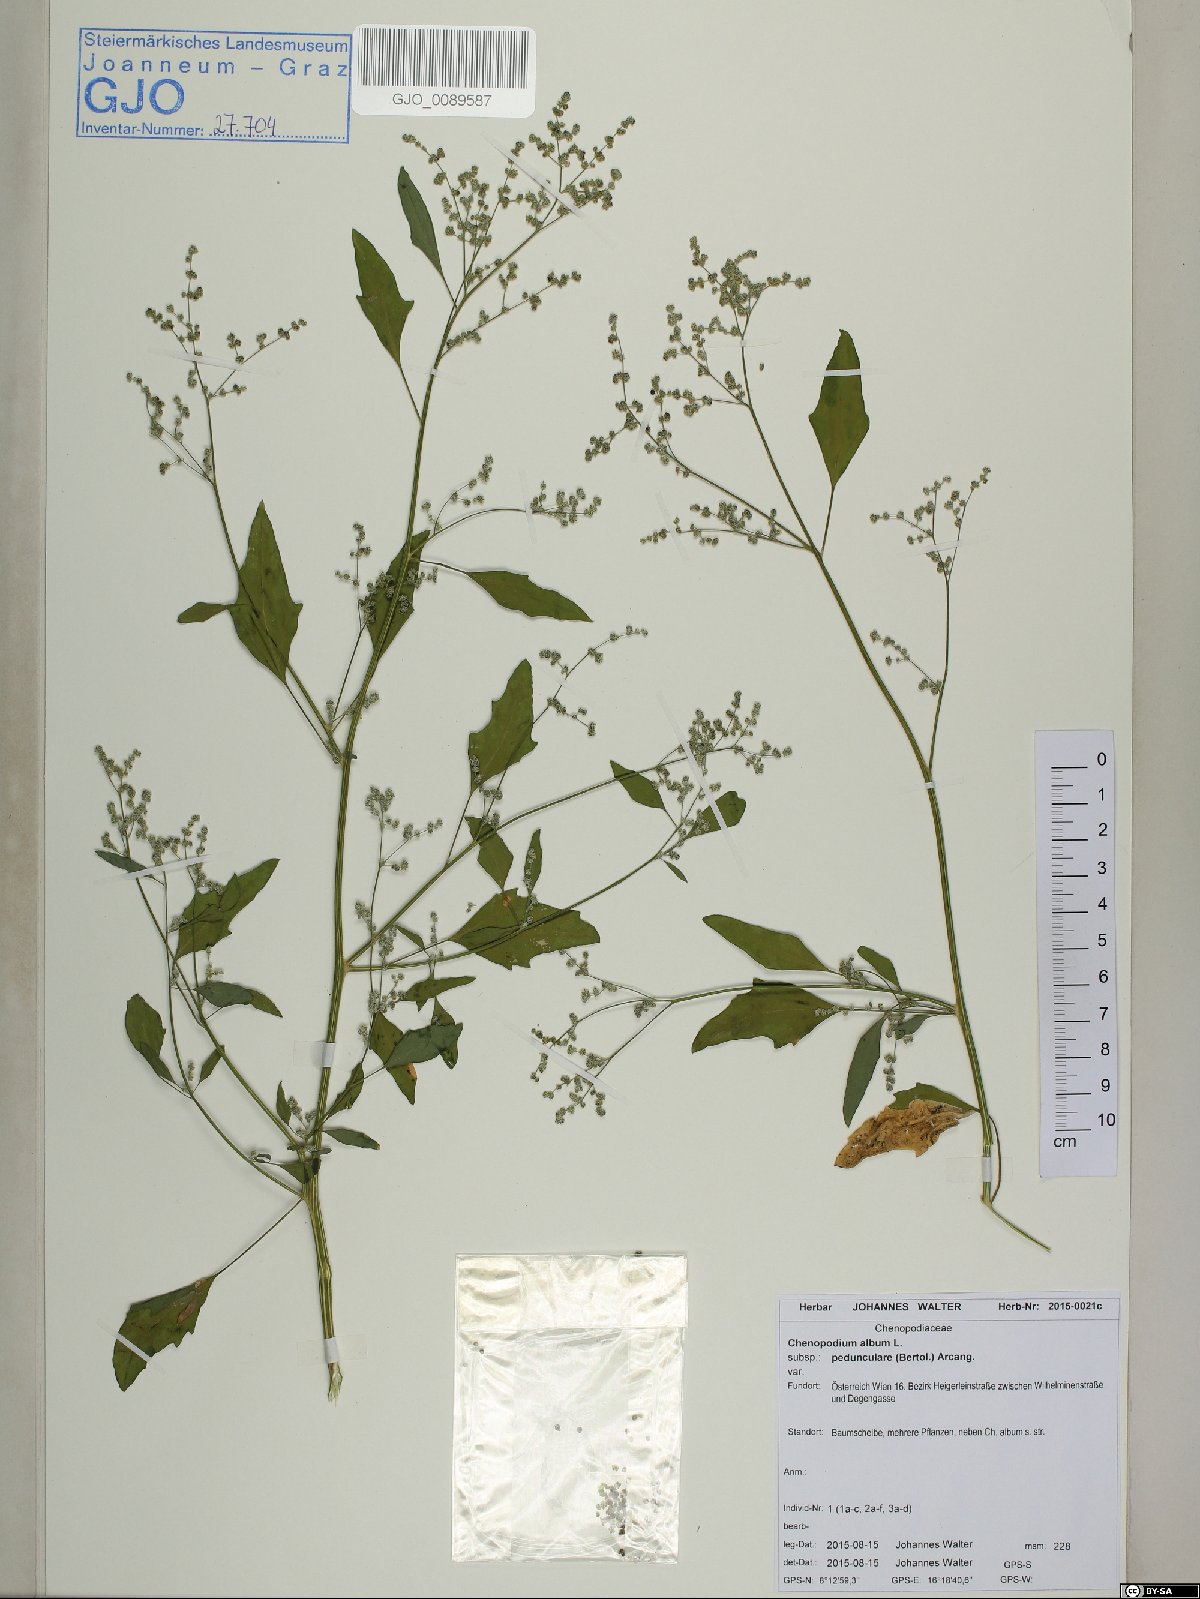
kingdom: Plantae
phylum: Tracheophyta
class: Magnoliopsida
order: Caryophyllales
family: Amaranthaceae
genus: Chenopodium
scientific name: Chenopodium album
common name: Fat-hen
